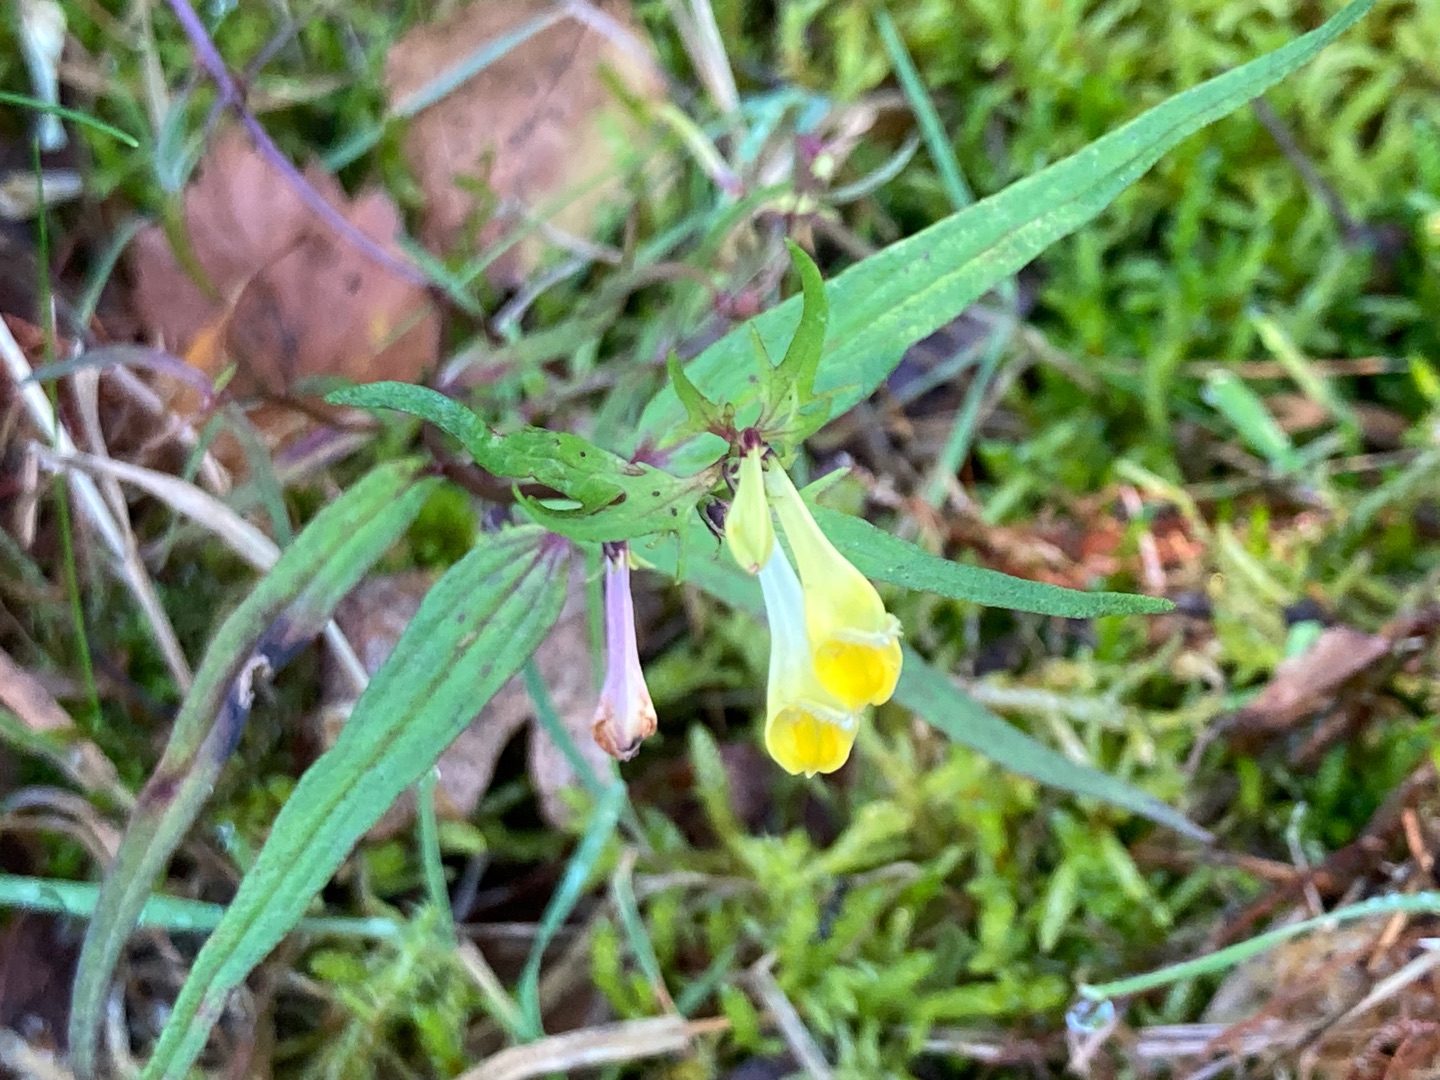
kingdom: Plantae
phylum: Tracheophyta
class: Magnoliopsida
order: Lamiales
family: Orobanchaceae
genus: Melampyrum
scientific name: Melampyrum pratense
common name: Almindelig kohvede
